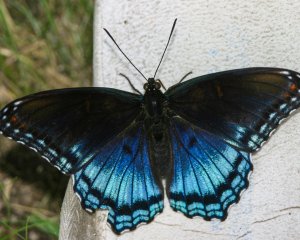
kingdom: Animalia
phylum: Arthropoda
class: Insecta
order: Lepidoptera
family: Nymphalidae
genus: Limenitis
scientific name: Limenitis astyanax
